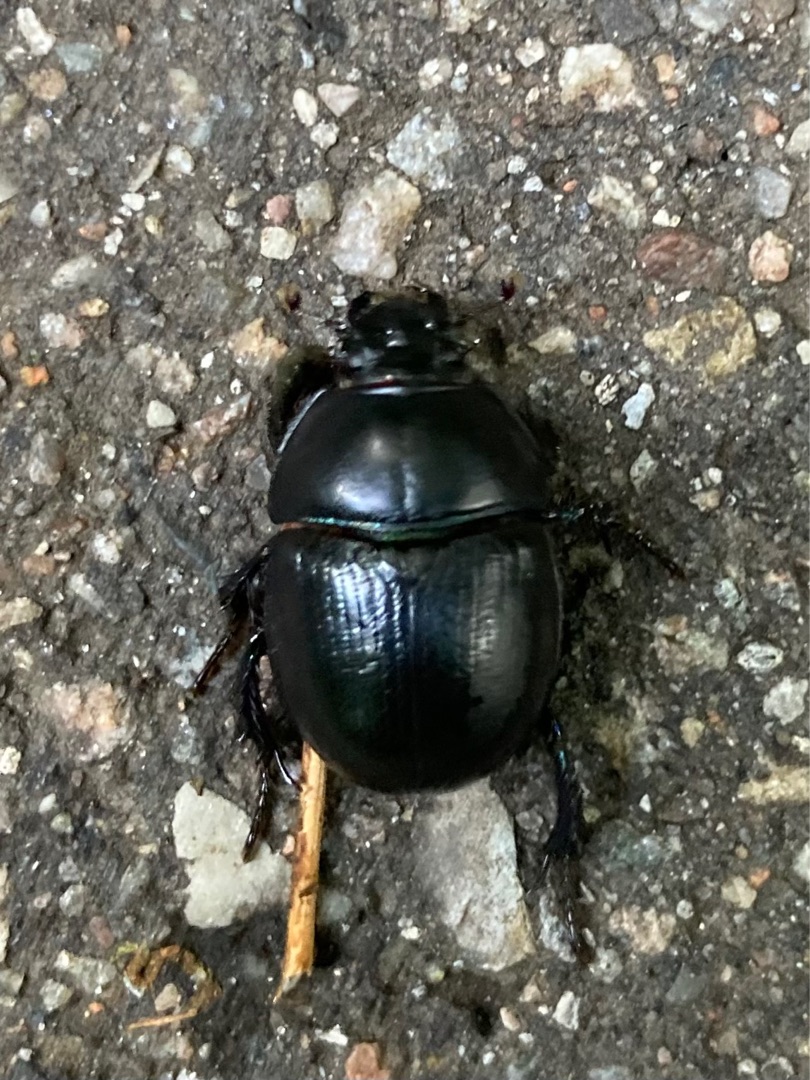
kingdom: Animalia
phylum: Arthropoda
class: Insecta
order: Coleoptera
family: Geotrupidae
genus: Anoplotrupes
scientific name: Anoplotrupes stercorosus
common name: Skovskarnbasse
